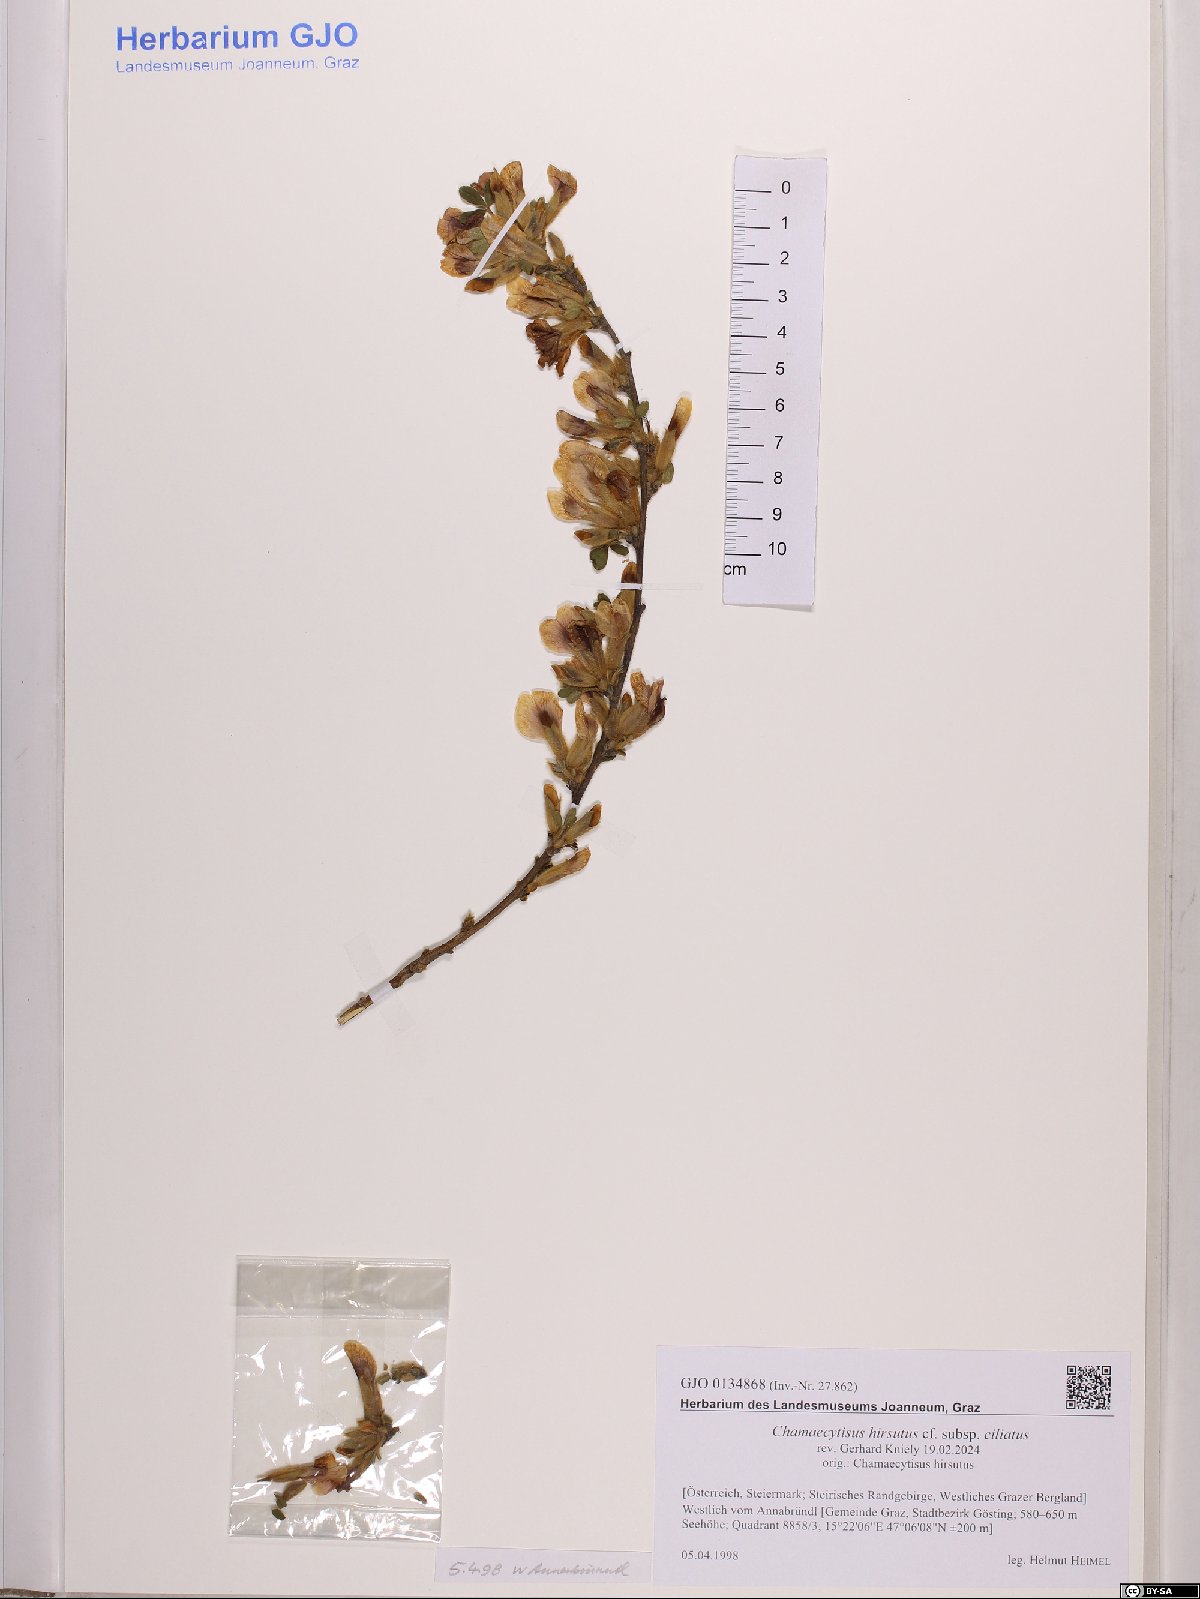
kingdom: Plantae
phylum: Tracheophyta
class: Magnoliopsida
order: Fabales
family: Fabaceae
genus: Chamaecytisus
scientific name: Chamaecytisus hirsutus
